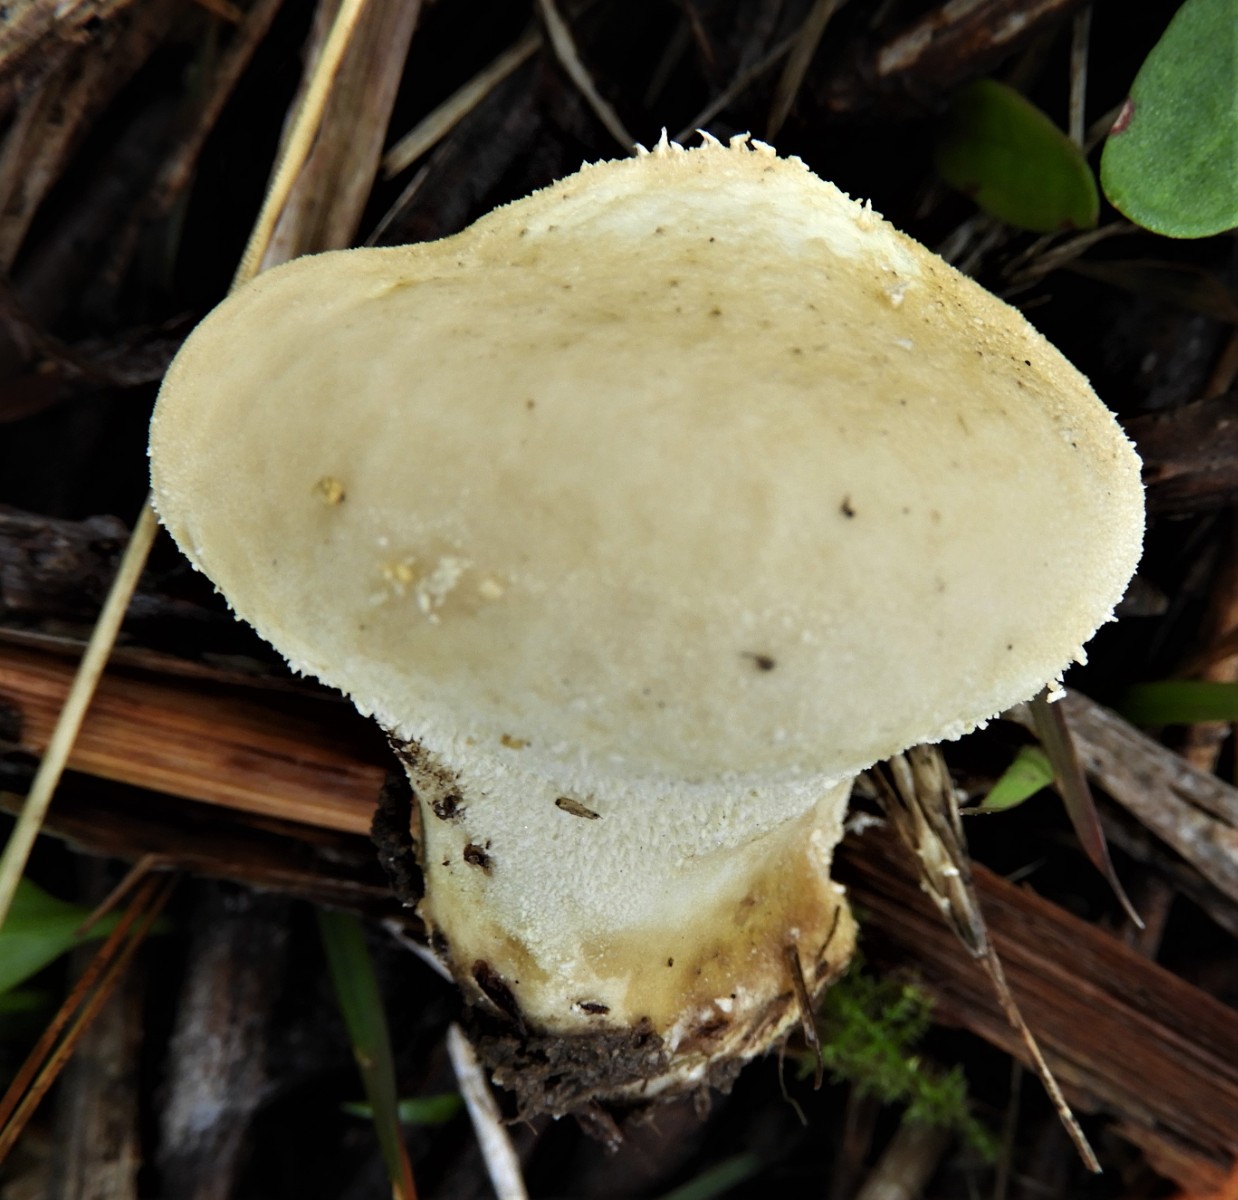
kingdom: Fungi
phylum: Basidiomycota
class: Agaricomycetes
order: Agaricales
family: Lycoperdaceae
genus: Lycoperdon
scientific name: Lycoperdon pratense
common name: flad støvbold
